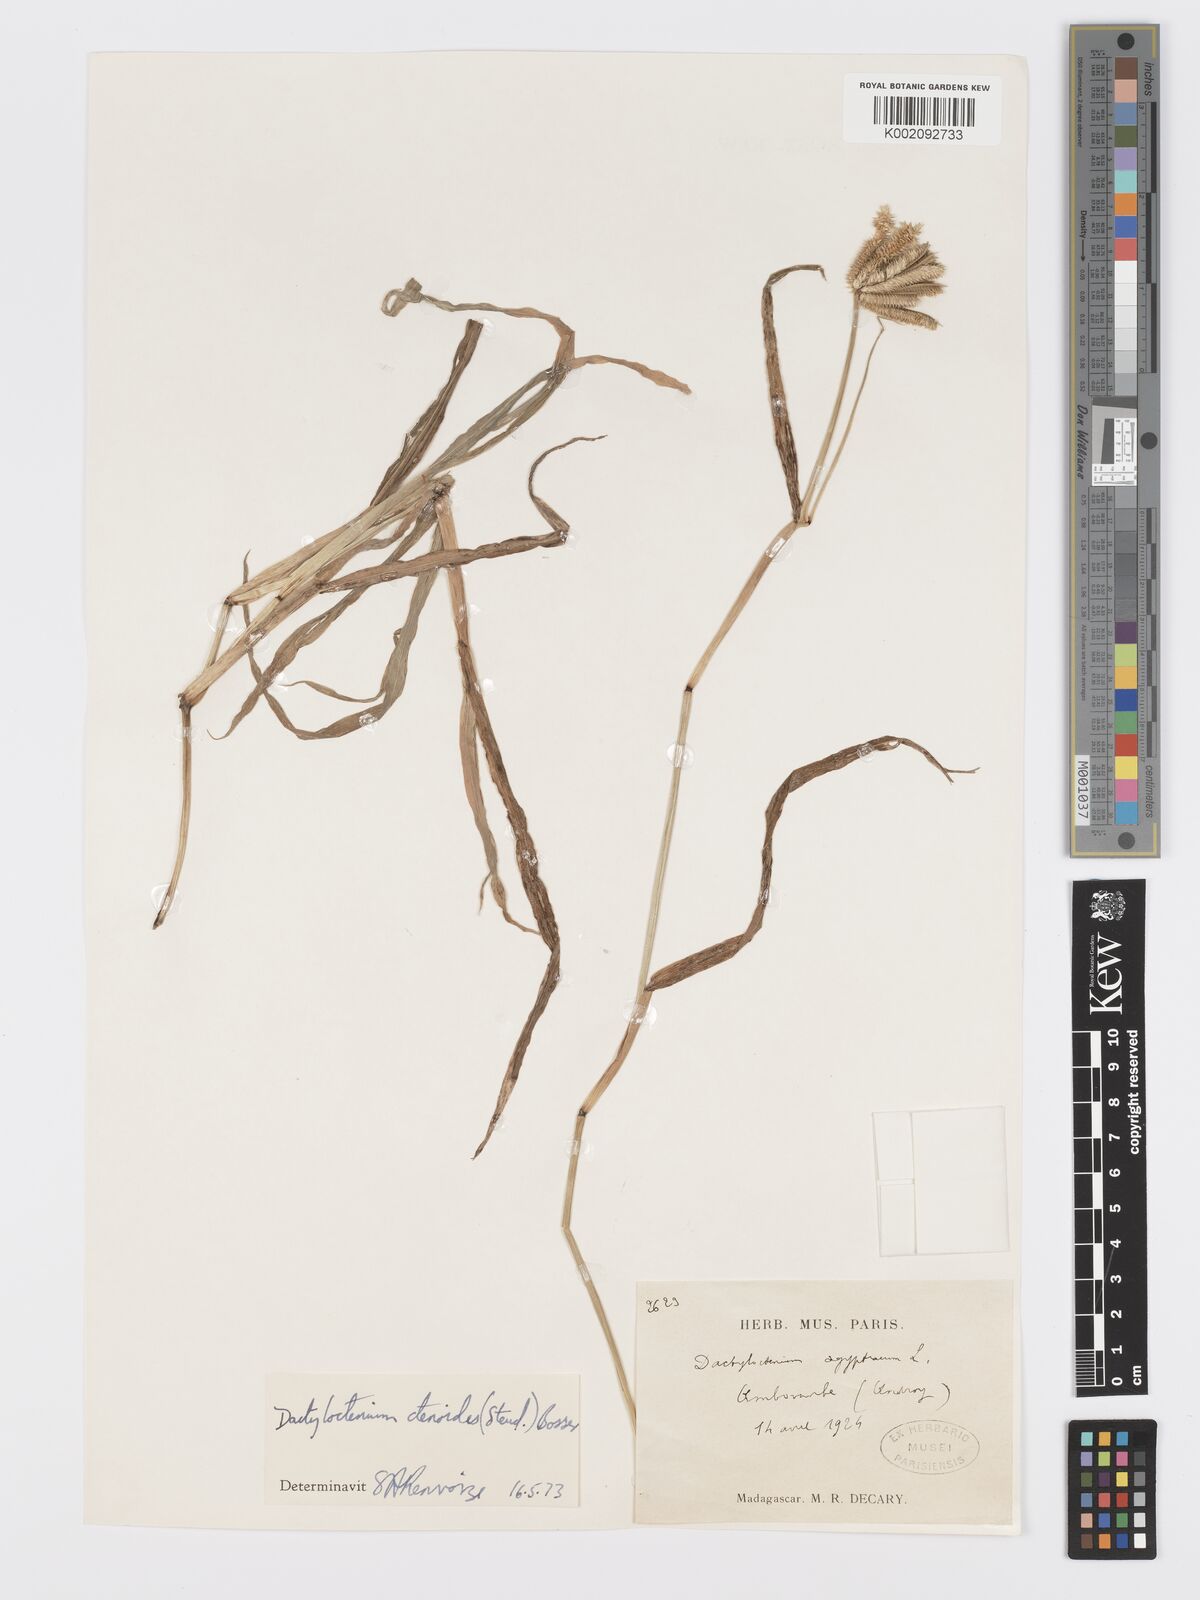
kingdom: Plantae
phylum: Tracheophyta
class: Liliopsida
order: Poales
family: Poaceae
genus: Dactyloctenium
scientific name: Dactyloctenium ctenoides
